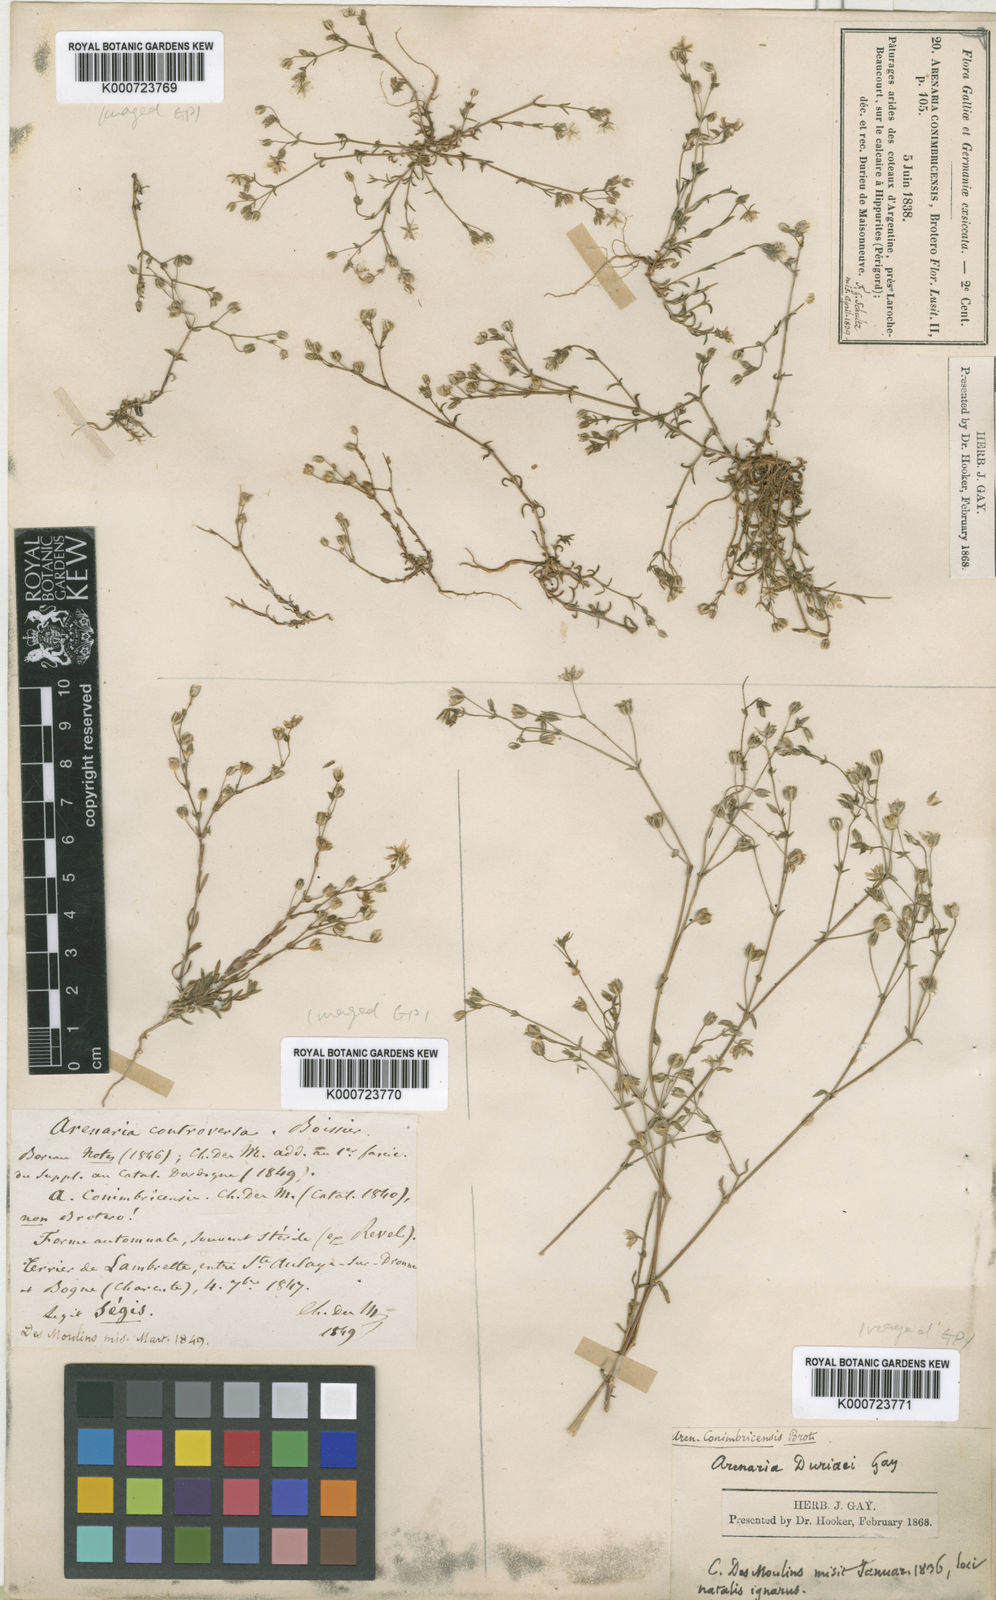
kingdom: Plantae
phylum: Tracheophyta
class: Magnoliopsida
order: Caryophyllales
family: Caryophyllaceae
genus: Arenaria
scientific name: Arenaria controversa
